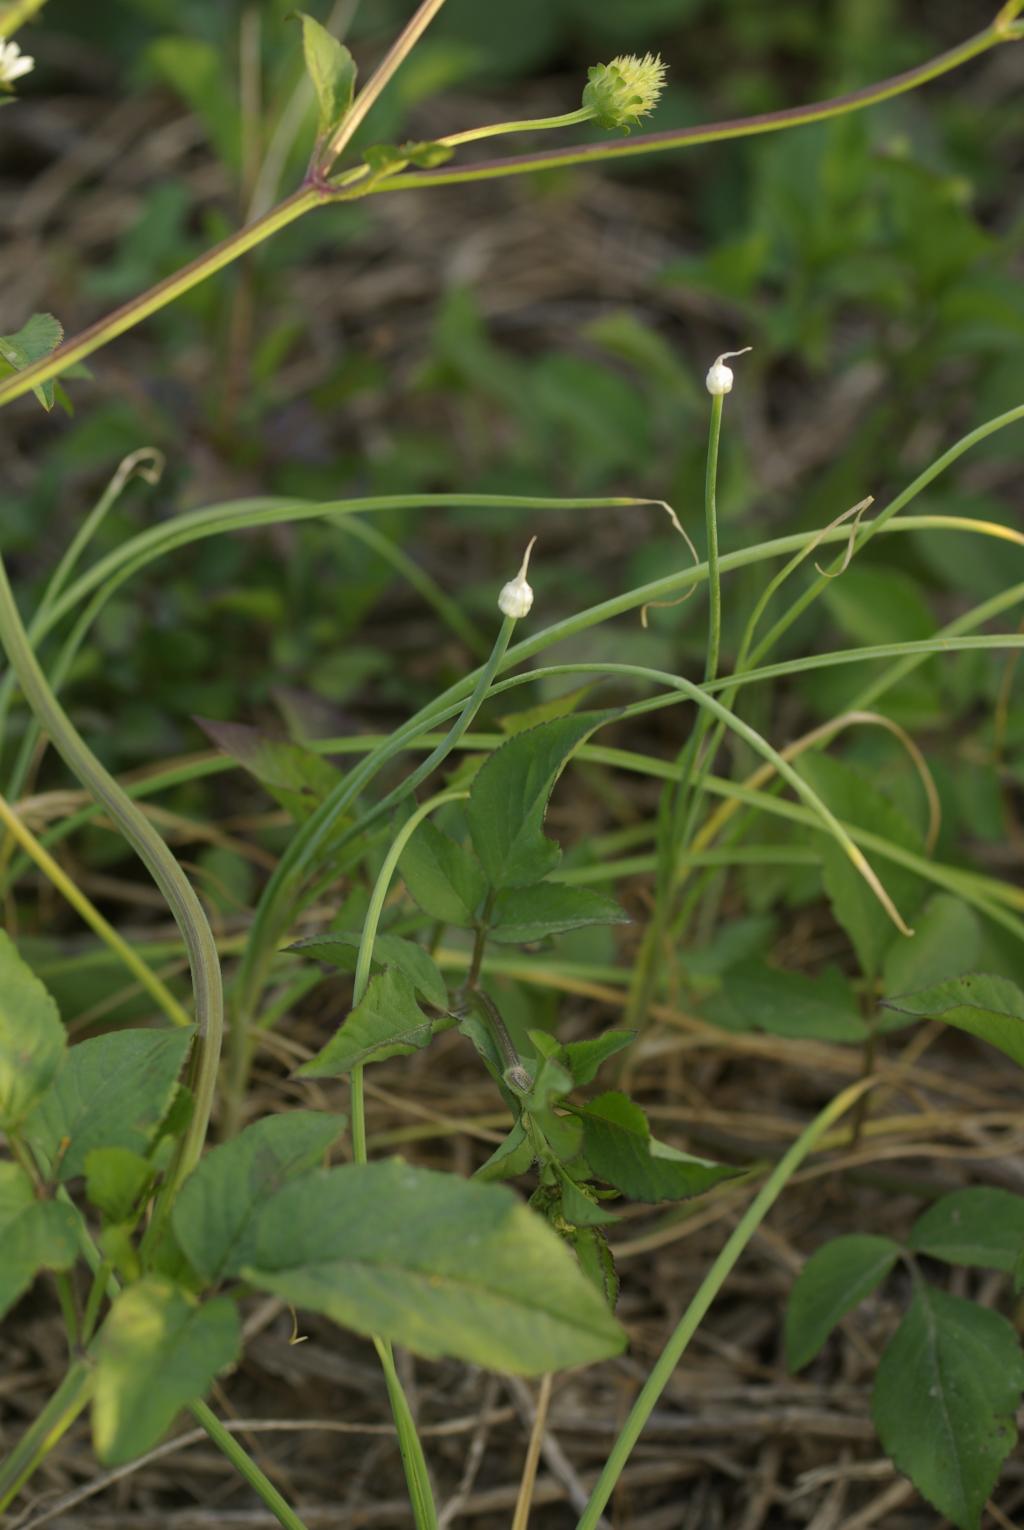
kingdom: Plantae
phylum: Tracheophyta
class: Liliopsida
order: Asparagales
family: Amaryllidaceae
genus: Allium
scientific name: Allium macrostemon
